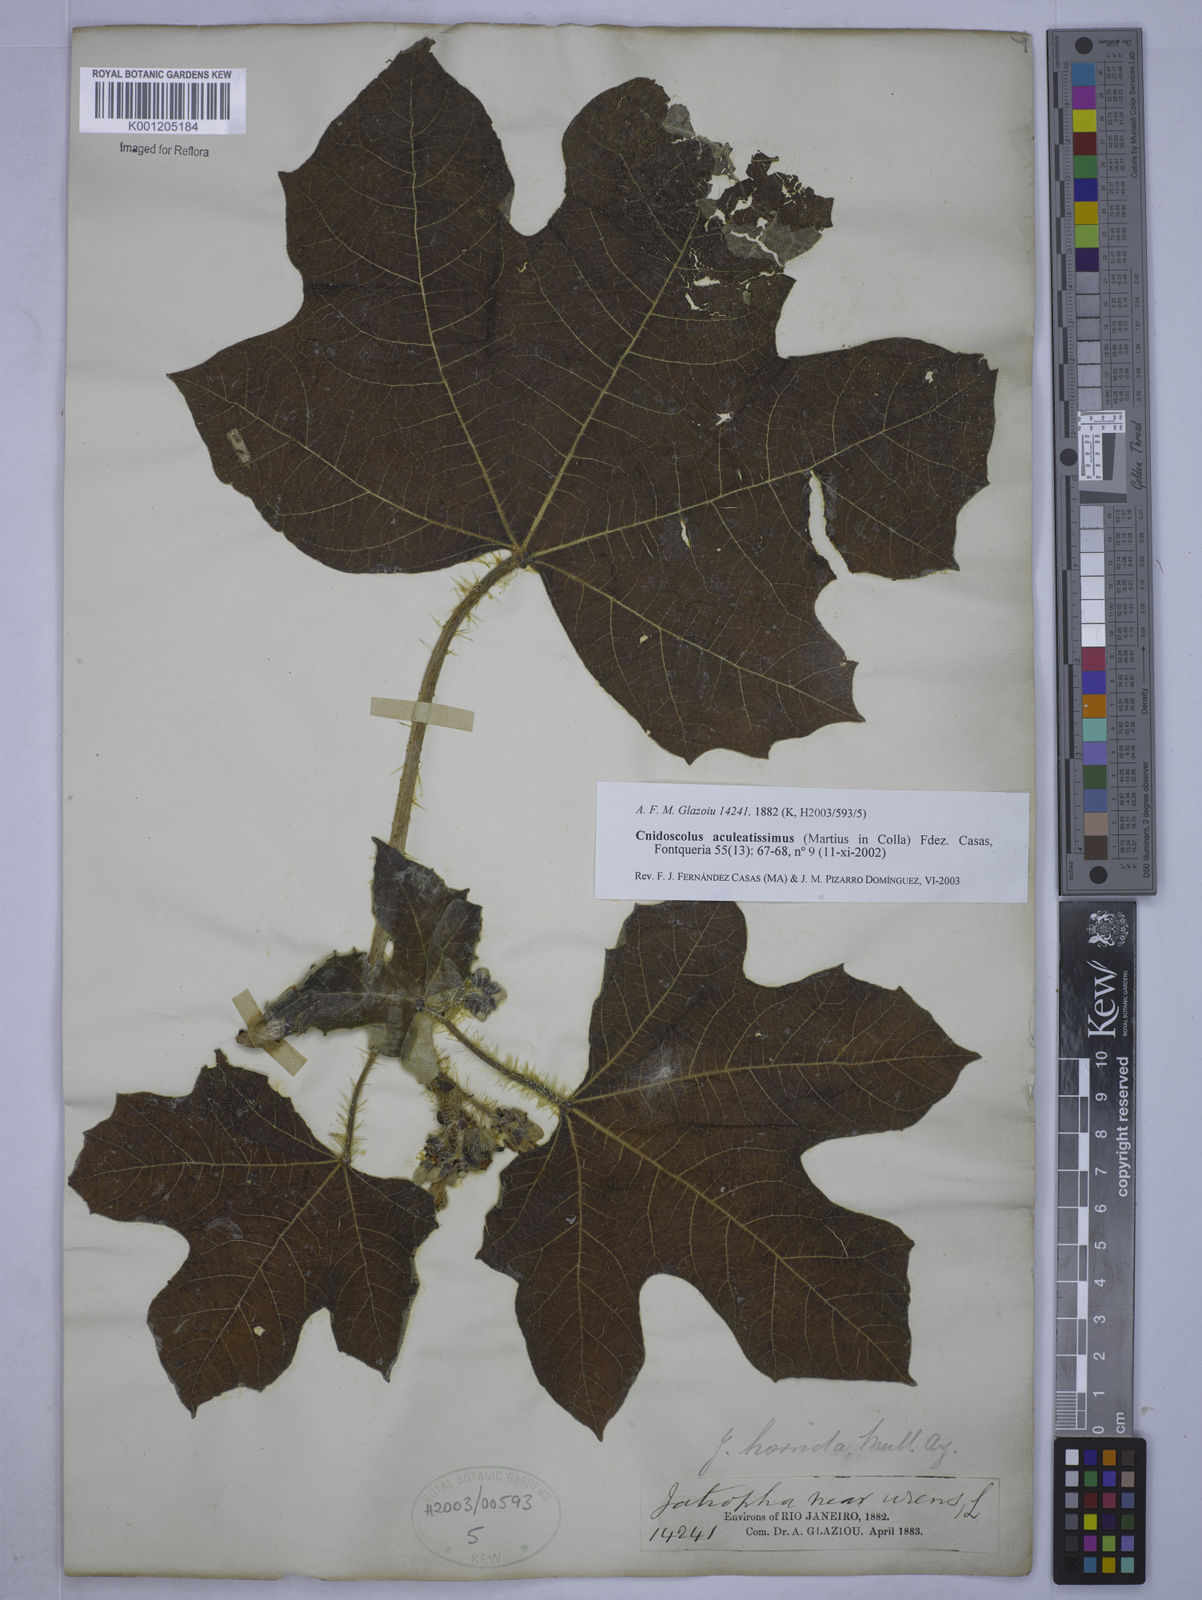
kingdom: Plantae
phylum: Tracheophyta
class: Magnoliopsida
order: Malpighiales
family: Euphorbiaceae
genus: Cnidoscolus
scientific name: Cnidoscolus aculeatissimus
